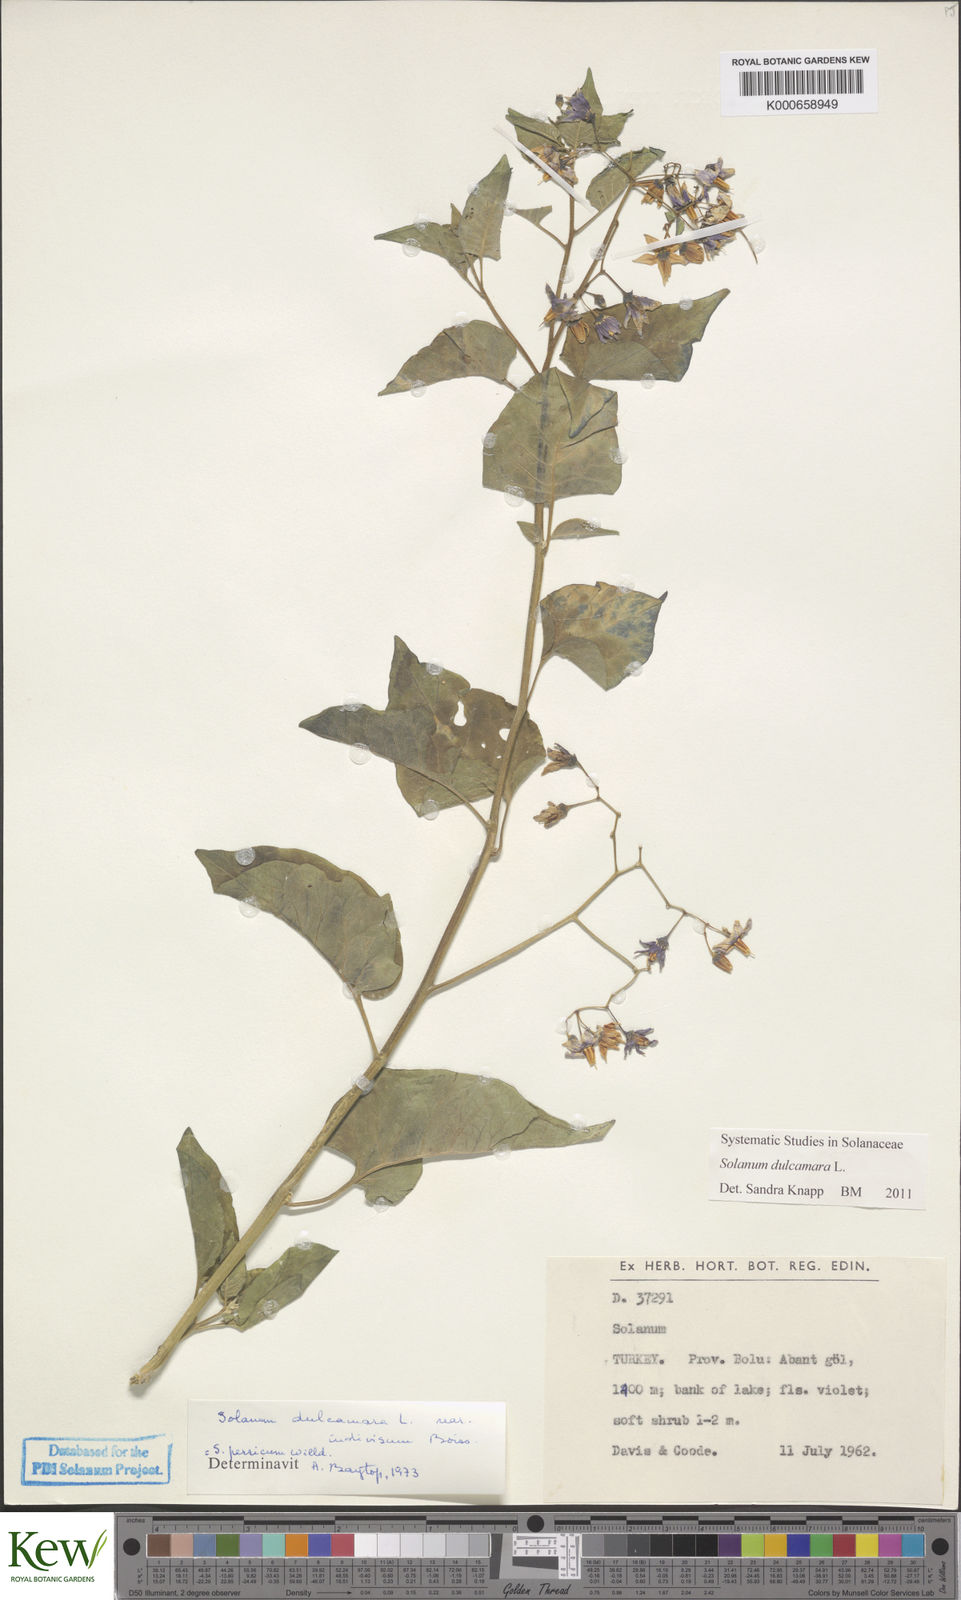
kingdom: Plantae
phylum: Tracheophyta
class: Magnoliopsida
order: Solanales
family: Solanaceae
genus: Solanum
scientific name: Solanum dulcamara
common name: Climbing nightshade
